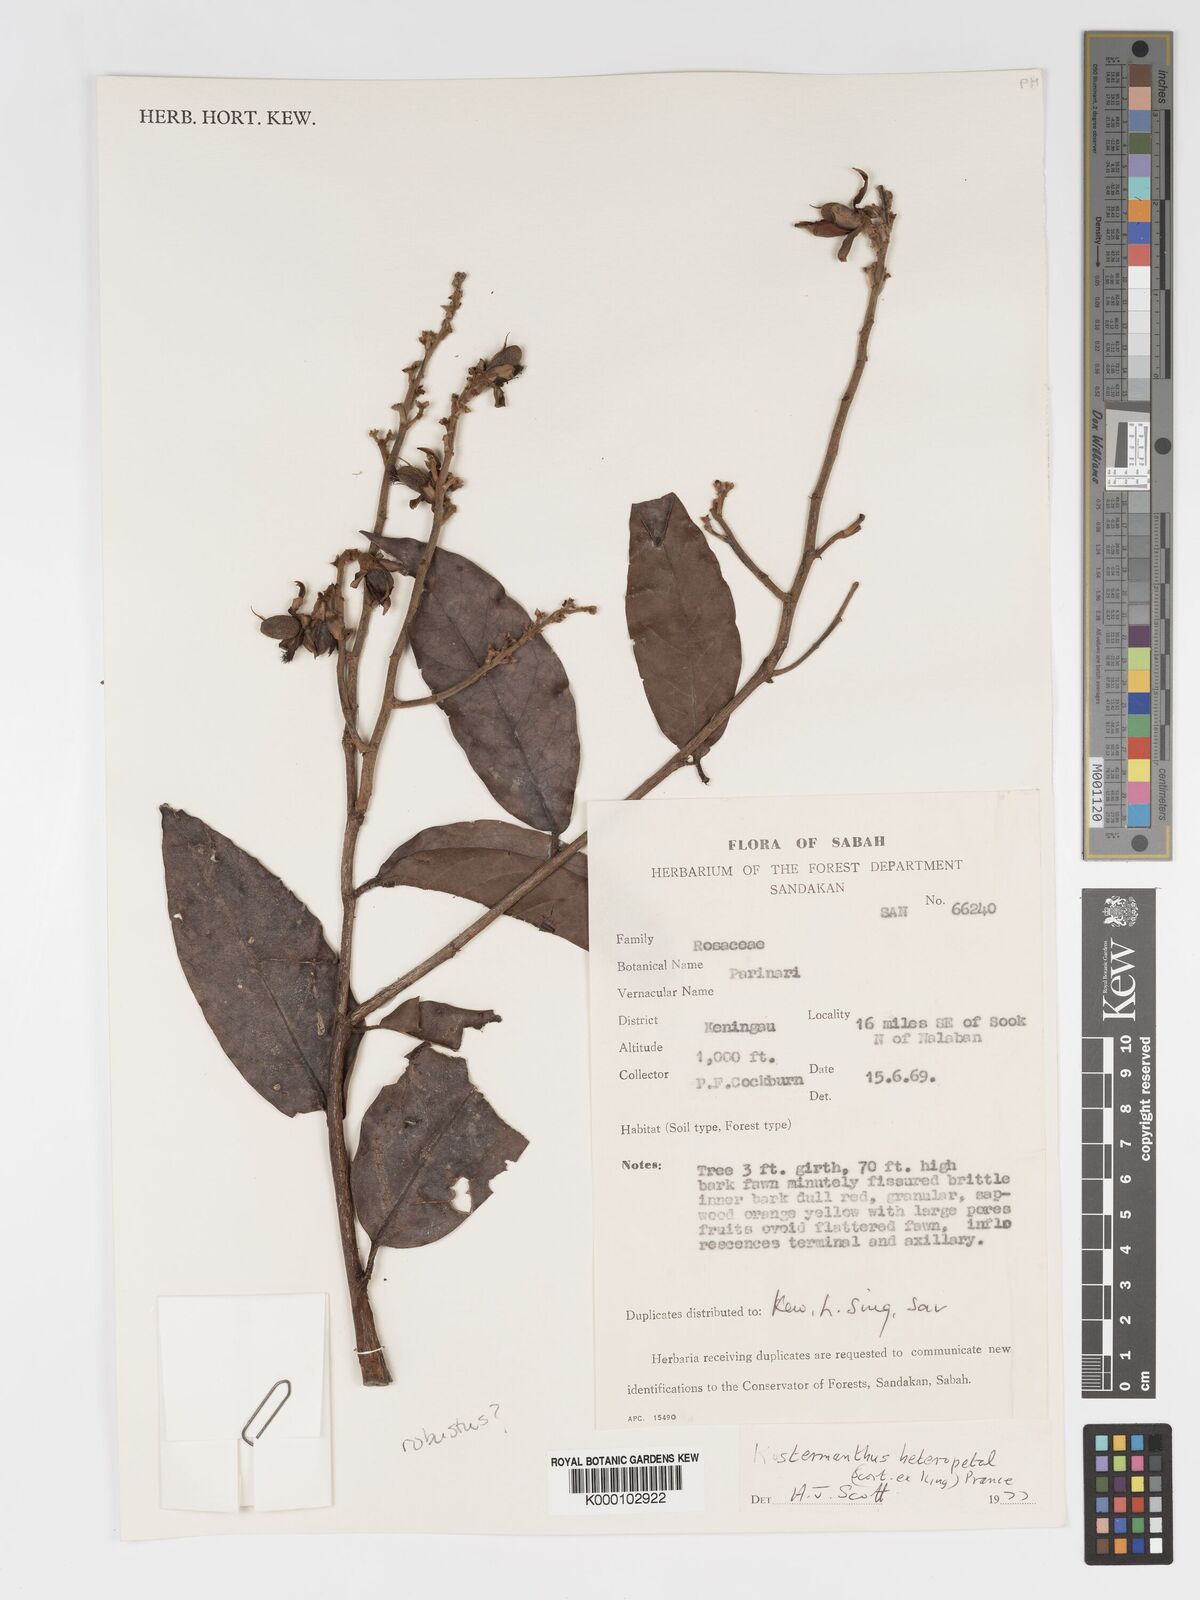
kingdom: Plantae
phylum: Tracheophyta
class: Magnoliopsida
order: Malpighiales
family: Chrysobalanaceae
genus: Kostermanthus
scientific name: Kostermanthus robustus
